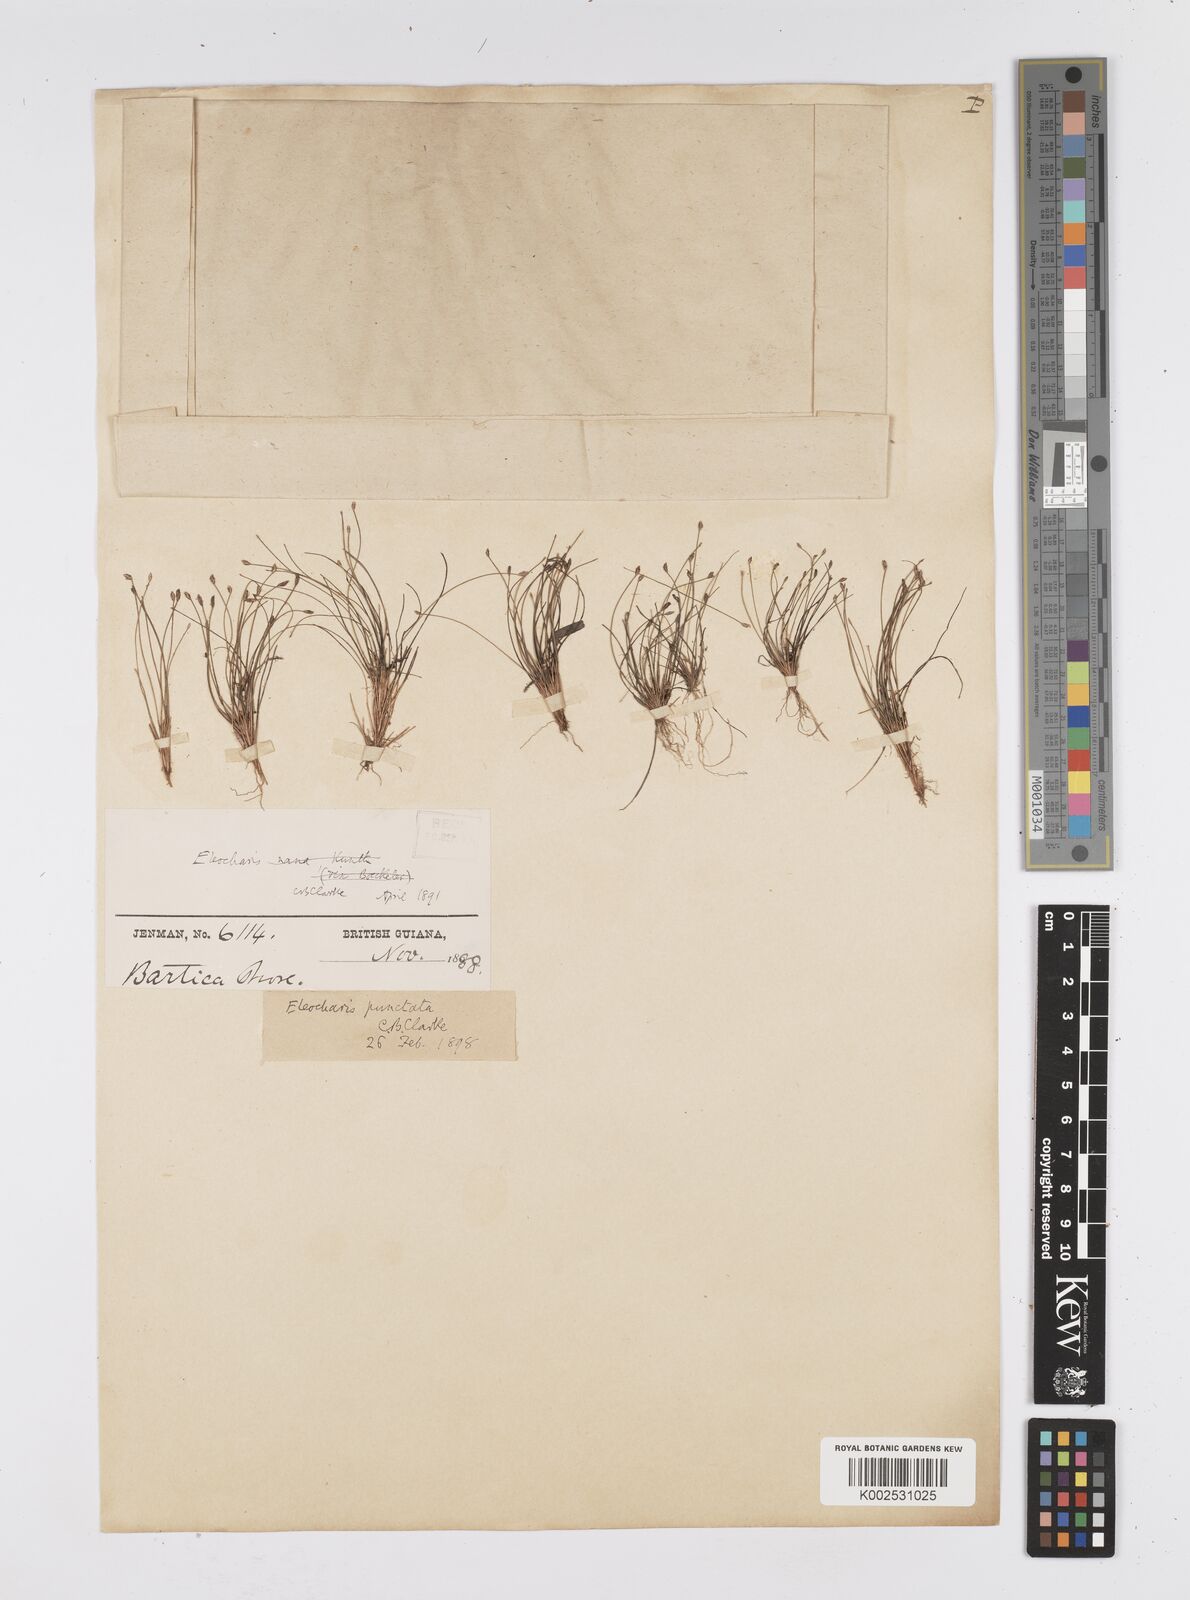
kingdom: Plantae
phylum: Tracheophyta
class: Liliopsida
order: Poales
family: Cyperaceae
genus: Eleocharis
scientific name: Eleocharis nana
